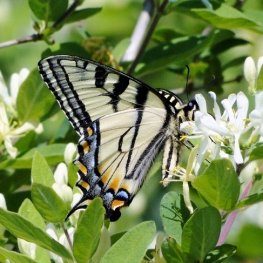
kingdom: Animalia
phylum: Arthropoda
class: Insecta
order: Lepidoptera
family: Papilionidae
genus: Pterourus
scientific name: Pterourus canadensis
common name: Canadian Tiger Swallowtail
